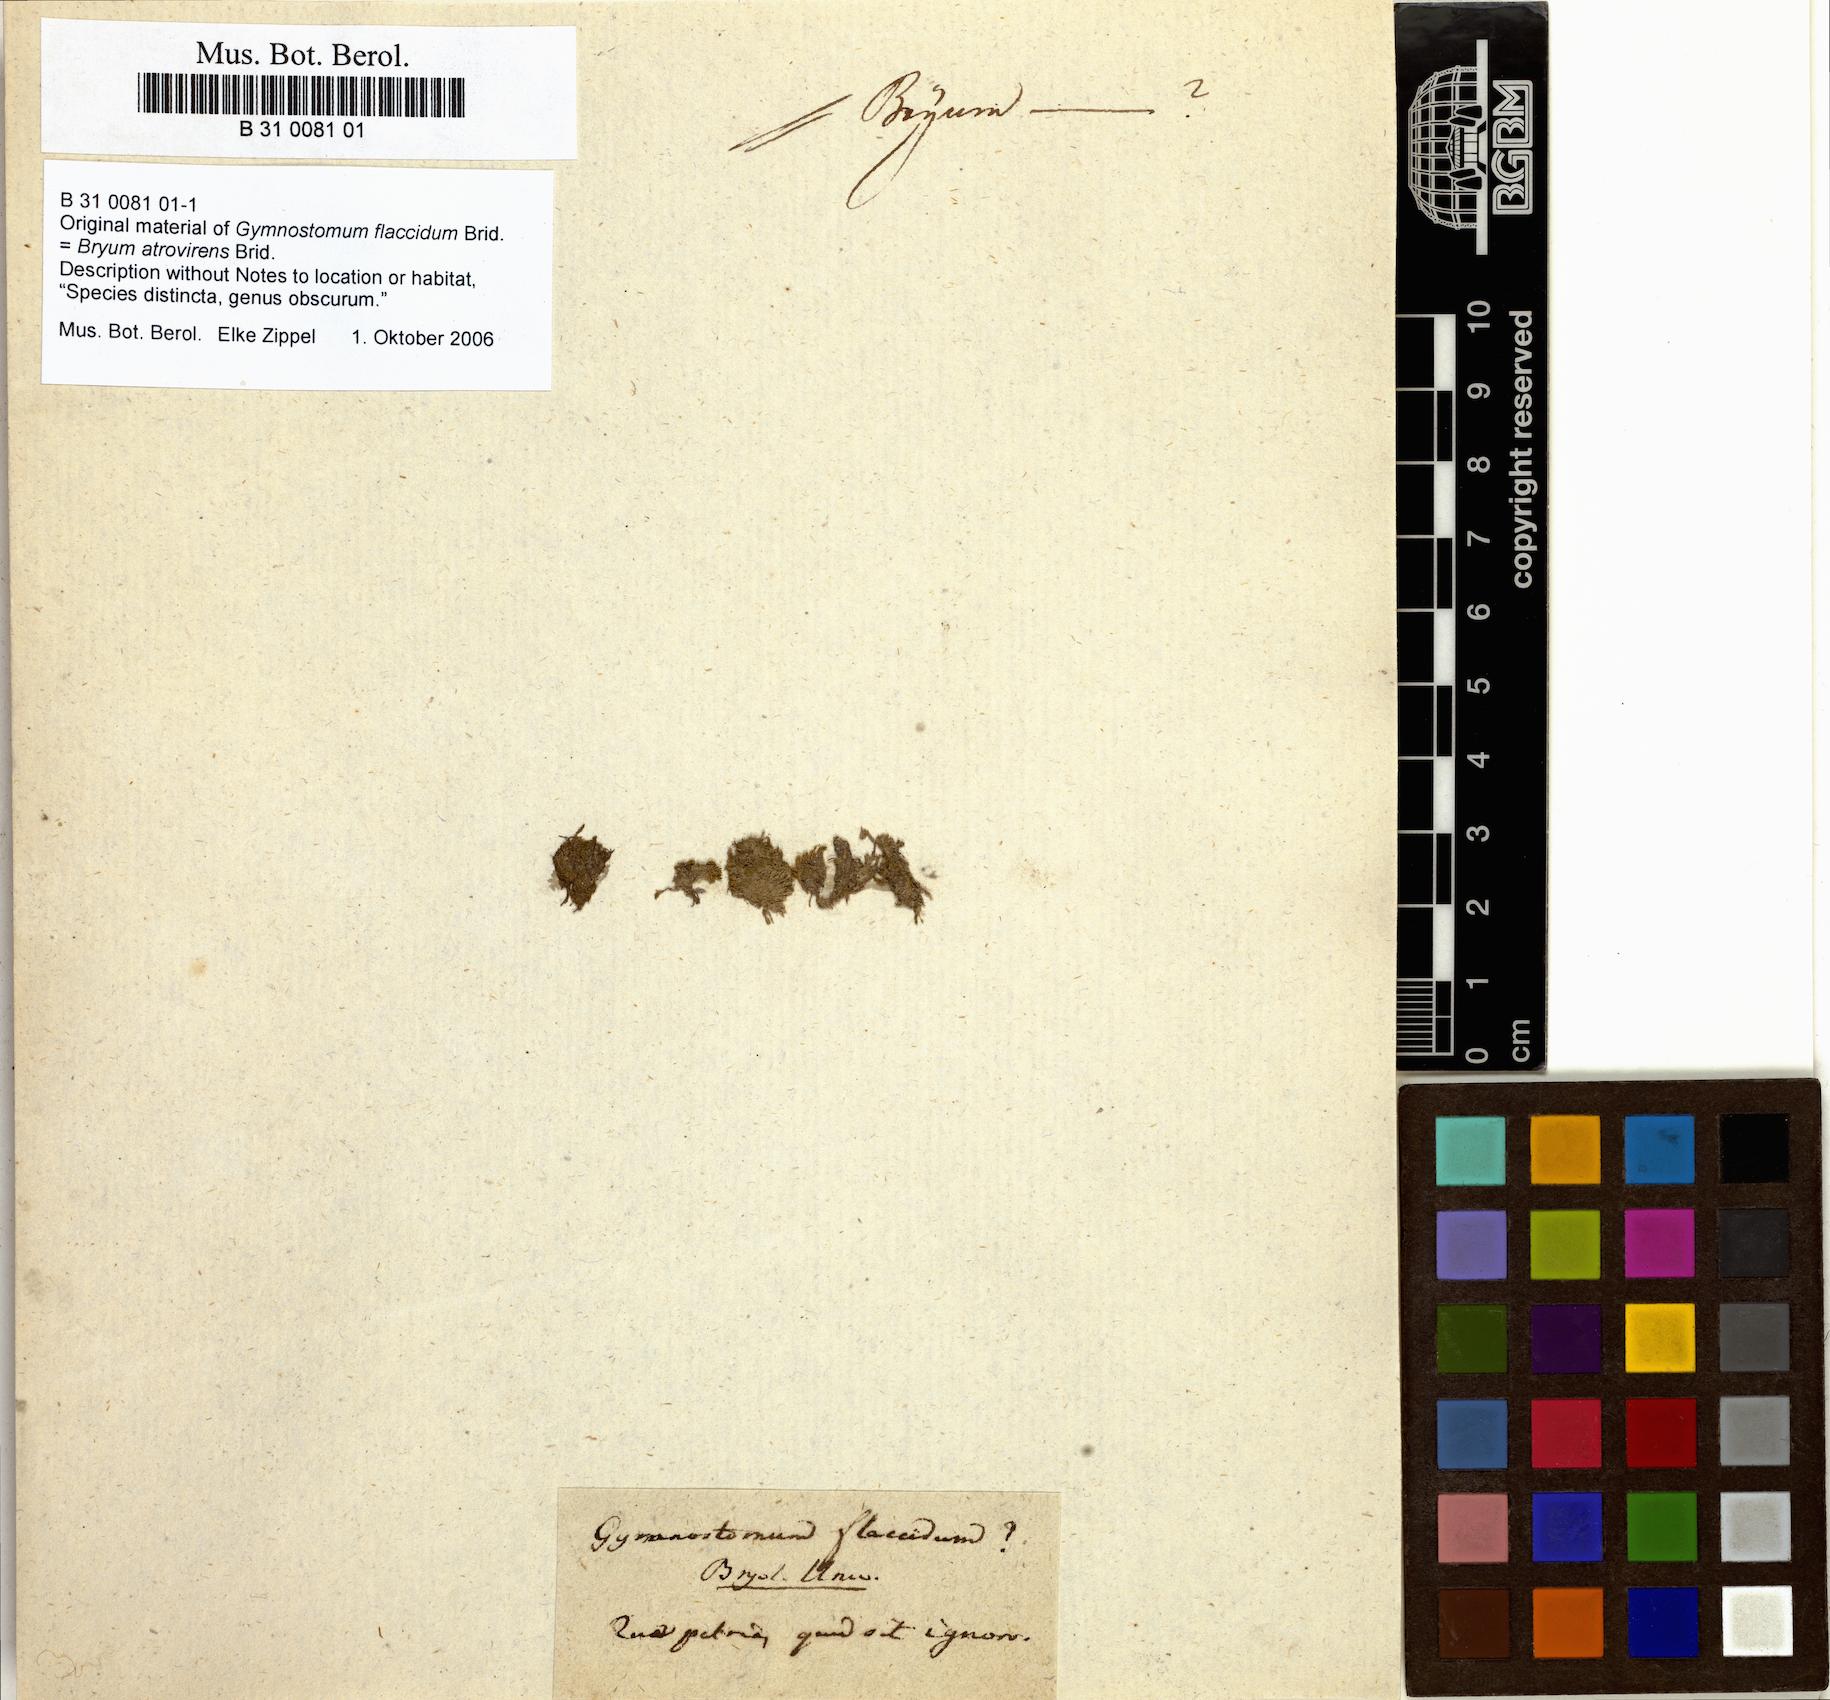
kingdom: Plantae
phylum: Bryophyta
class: Bryopsida
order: Bryales
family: Bryaceae
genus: Bryum
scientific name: Bryum atrovirens
